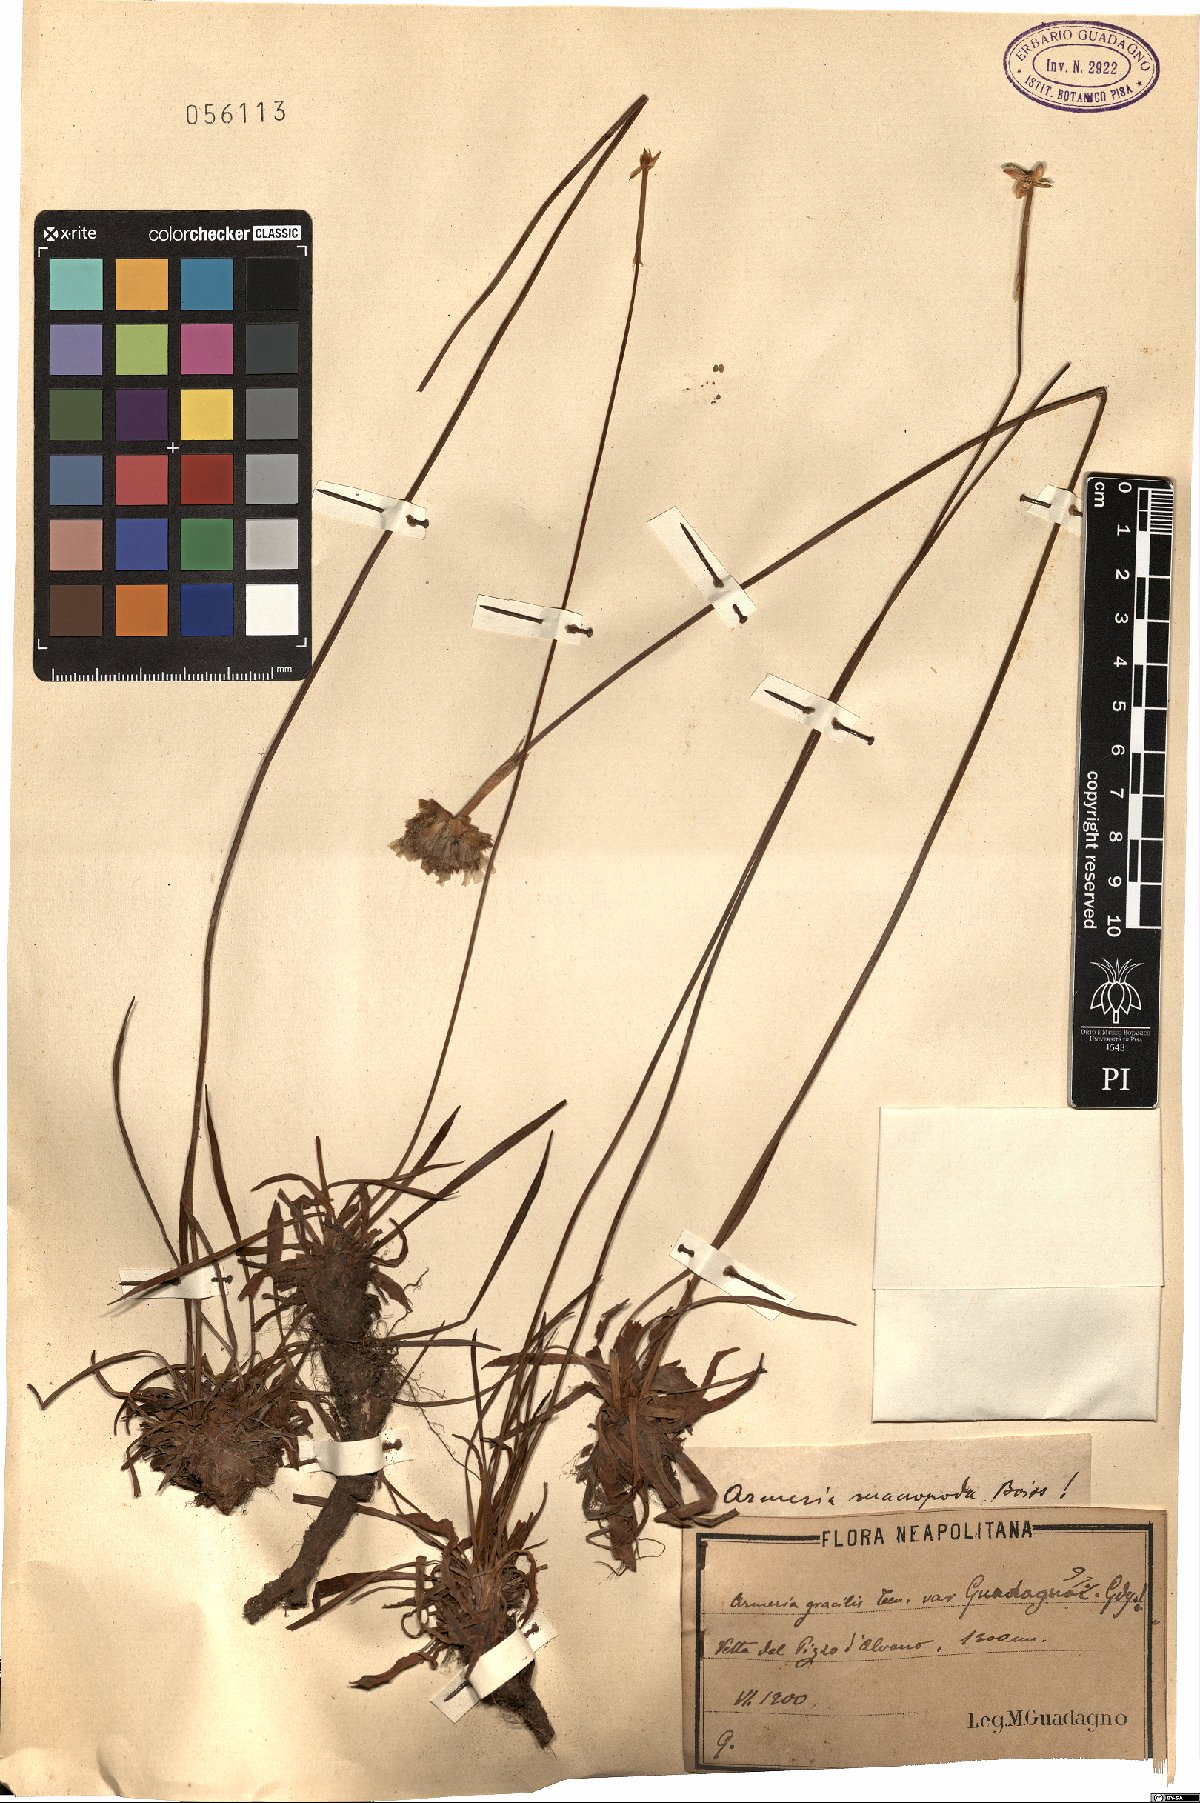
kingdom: Plantae
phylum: Tracheophyta
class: Magnoliopsida
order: Caryophyllales
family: Plumbaginaceae
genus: Armeria
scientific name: Armeria nebrodensis
